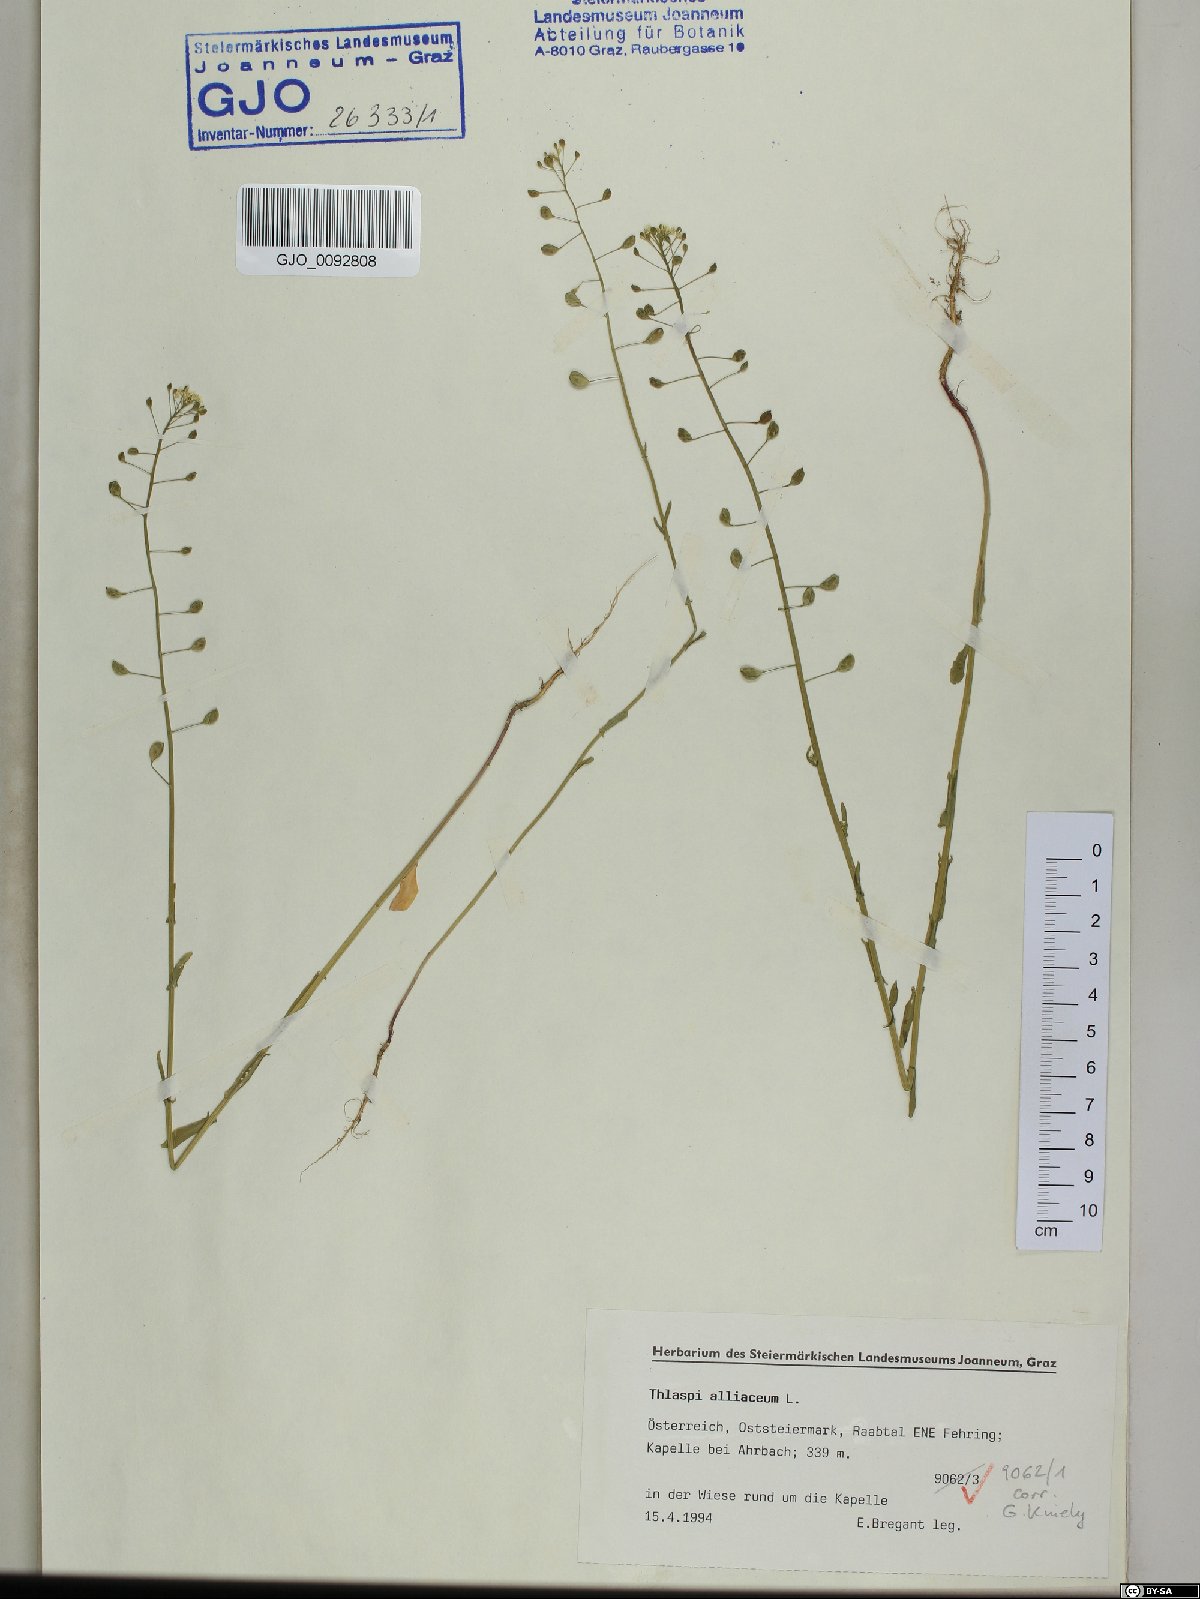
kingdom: Plantae
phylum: Tracheophyta
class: Magnoliopsida
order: Brassicales
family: Brassicaceae
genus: Mummenhoffia
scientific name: Mummenhoffia alliacea
